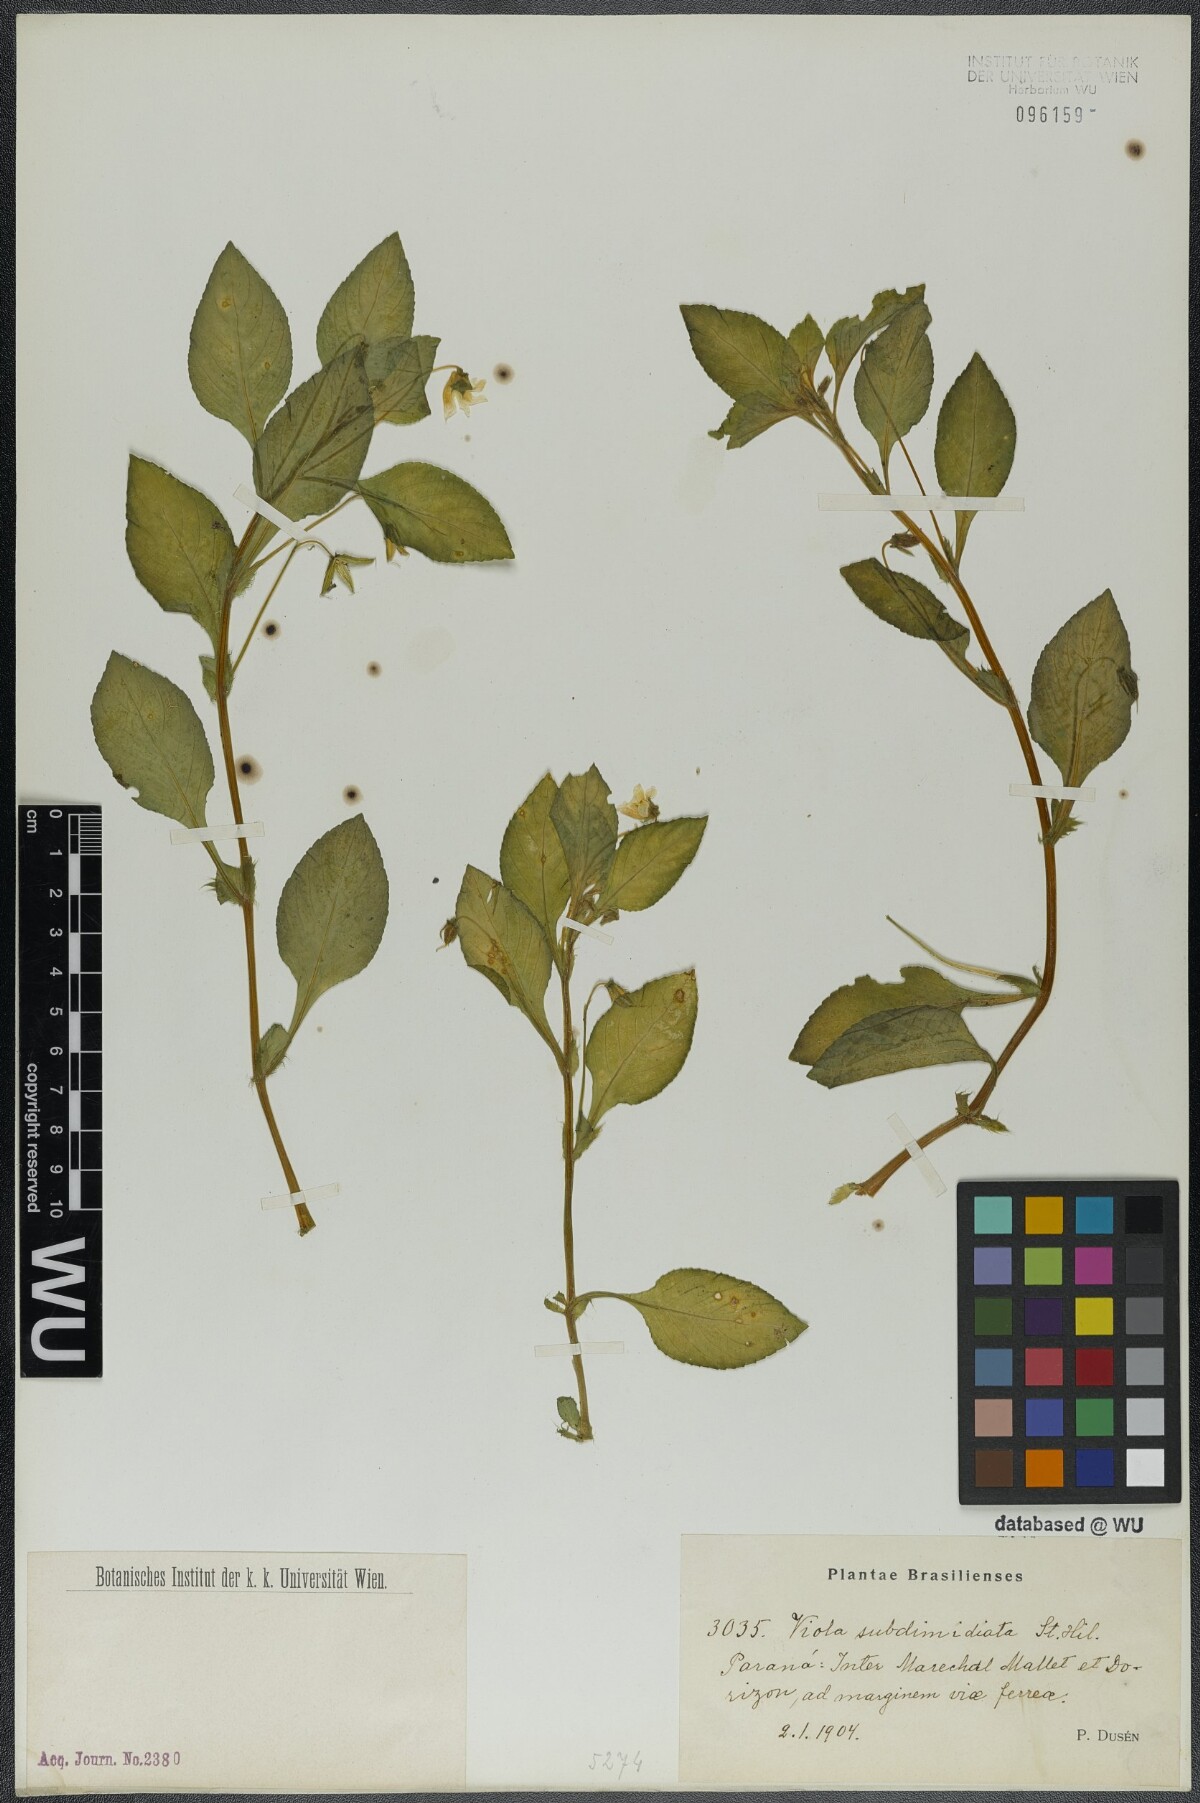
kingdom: Plantae
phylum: Tracheophyta
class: Magnoliopsida
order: Malpighiales
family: Violaceae
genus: Viola
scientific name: Viola subdimidiata
